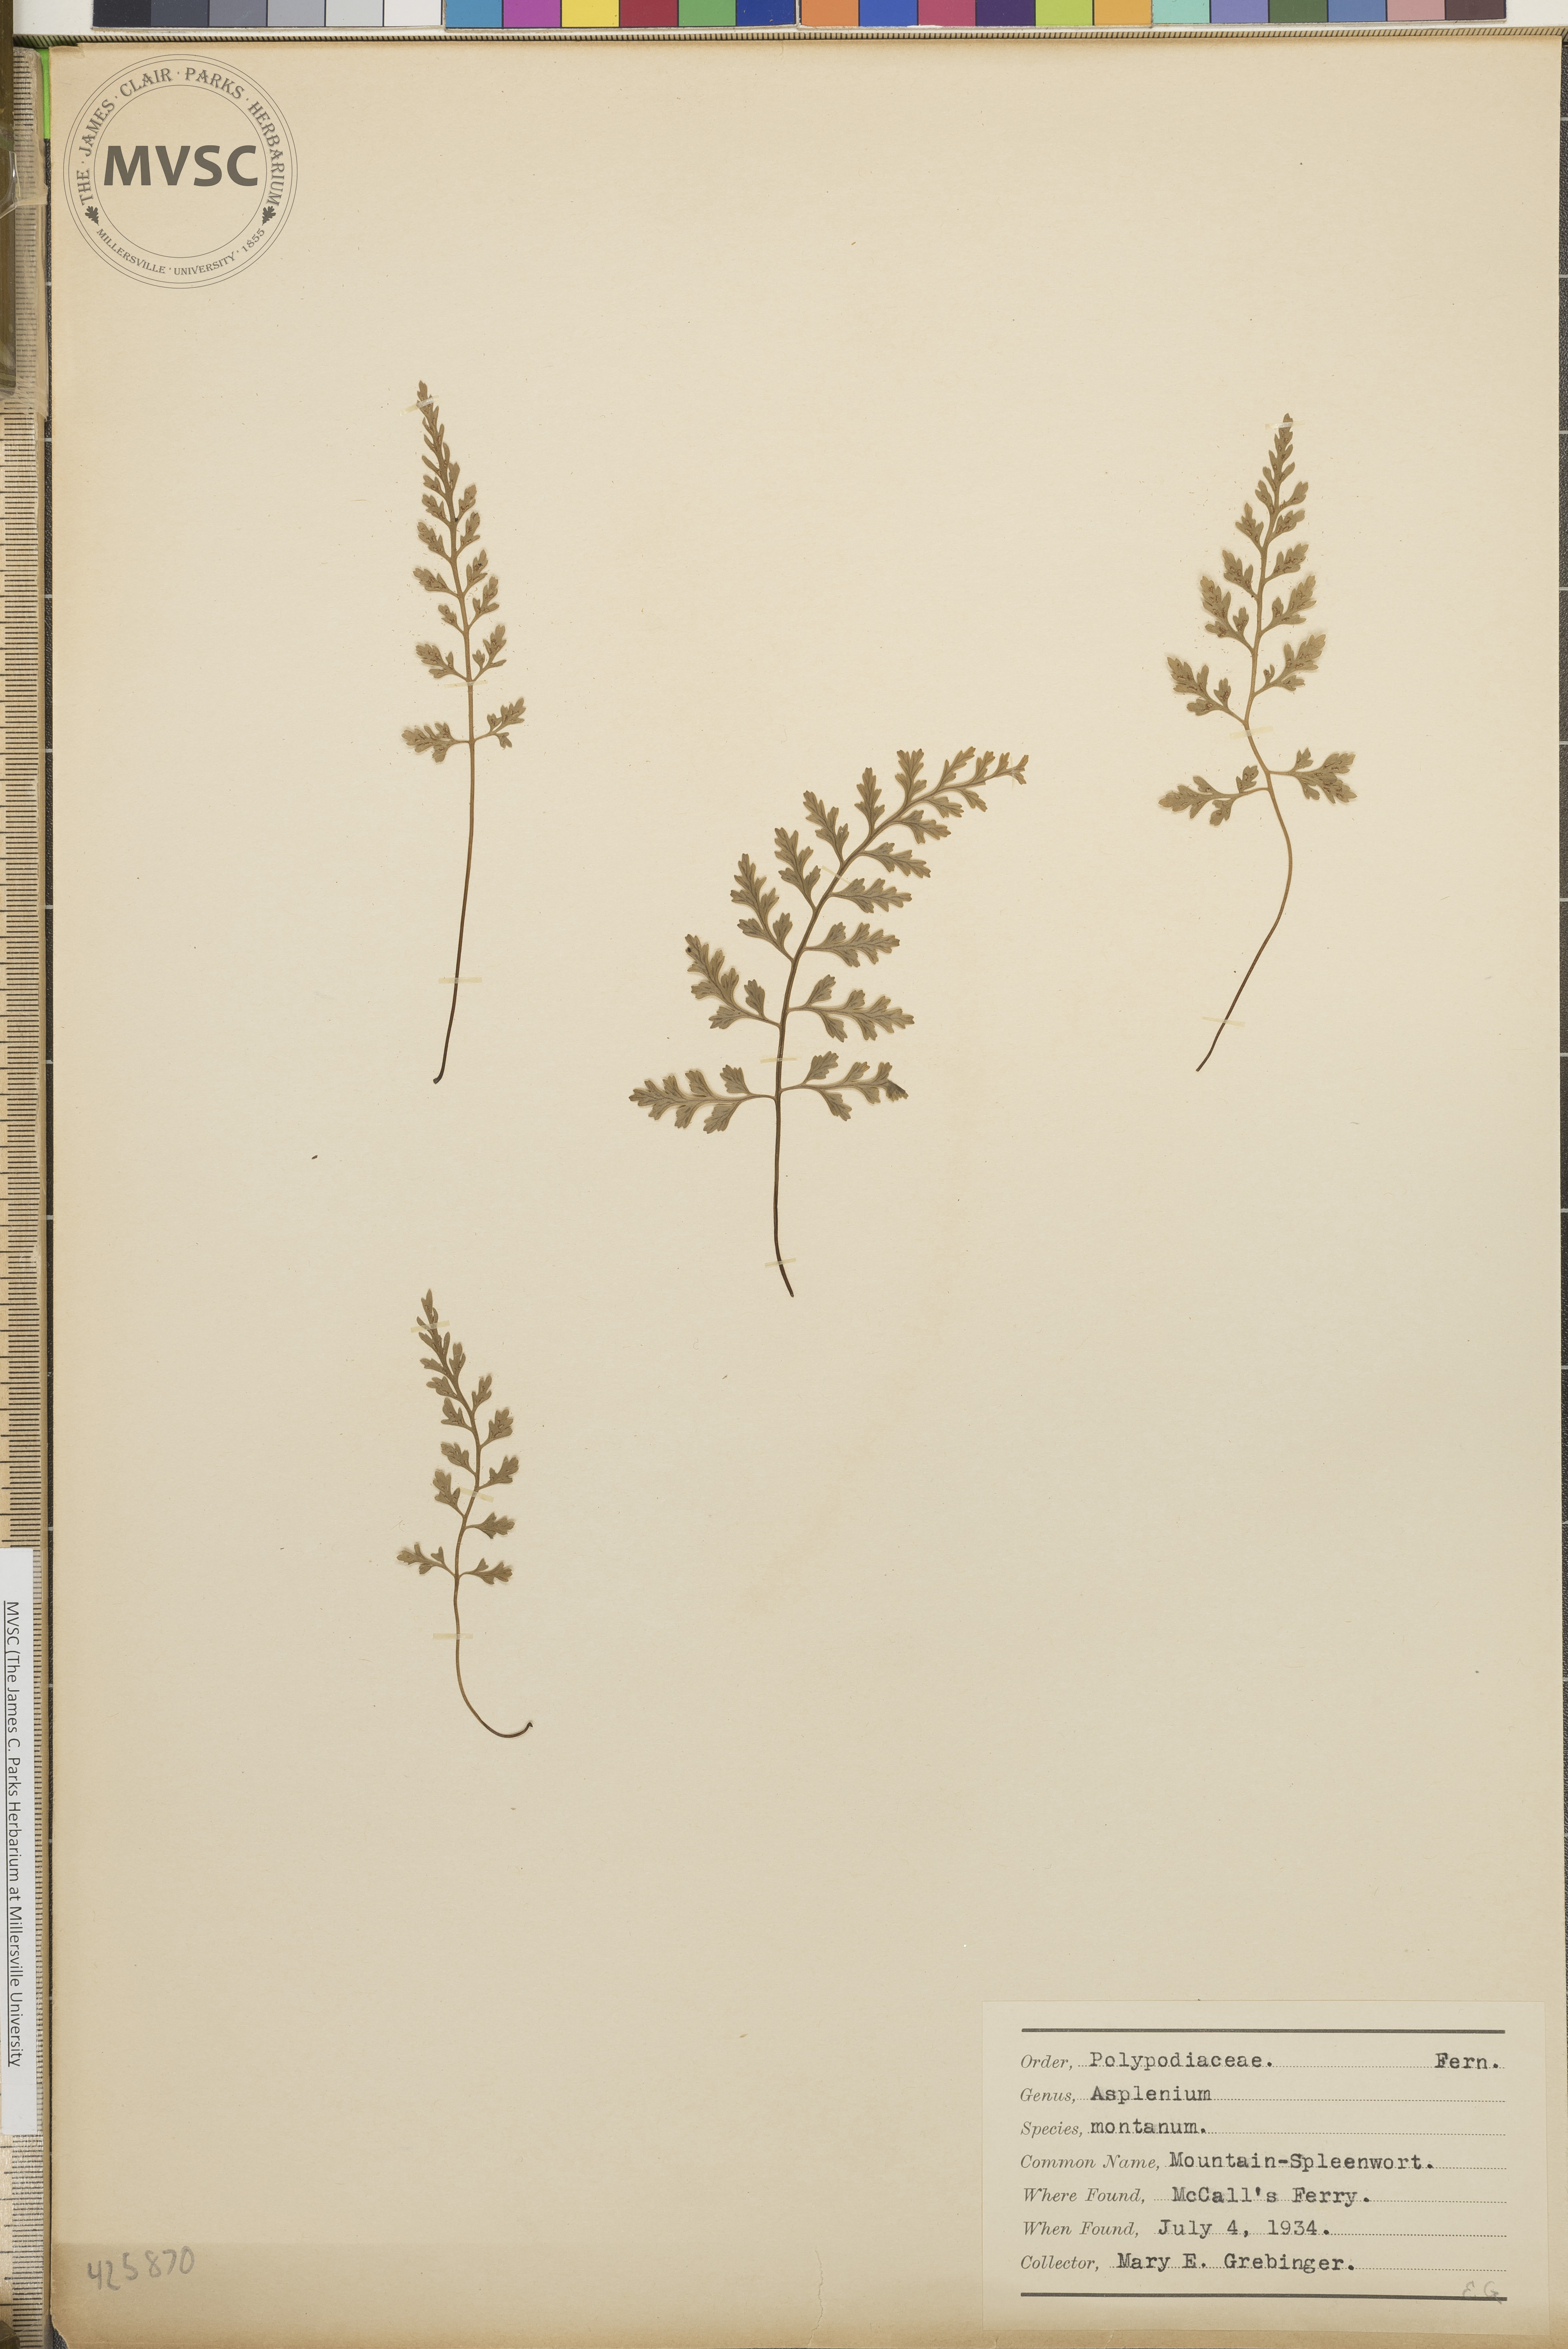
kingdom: Plantae
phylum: Tracheophyta
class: Polypodiopsida
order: Polypodiales
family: Aspleniaceae
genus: Asplenium
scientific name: Asplenium montanum
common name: Mountain spleenwort
